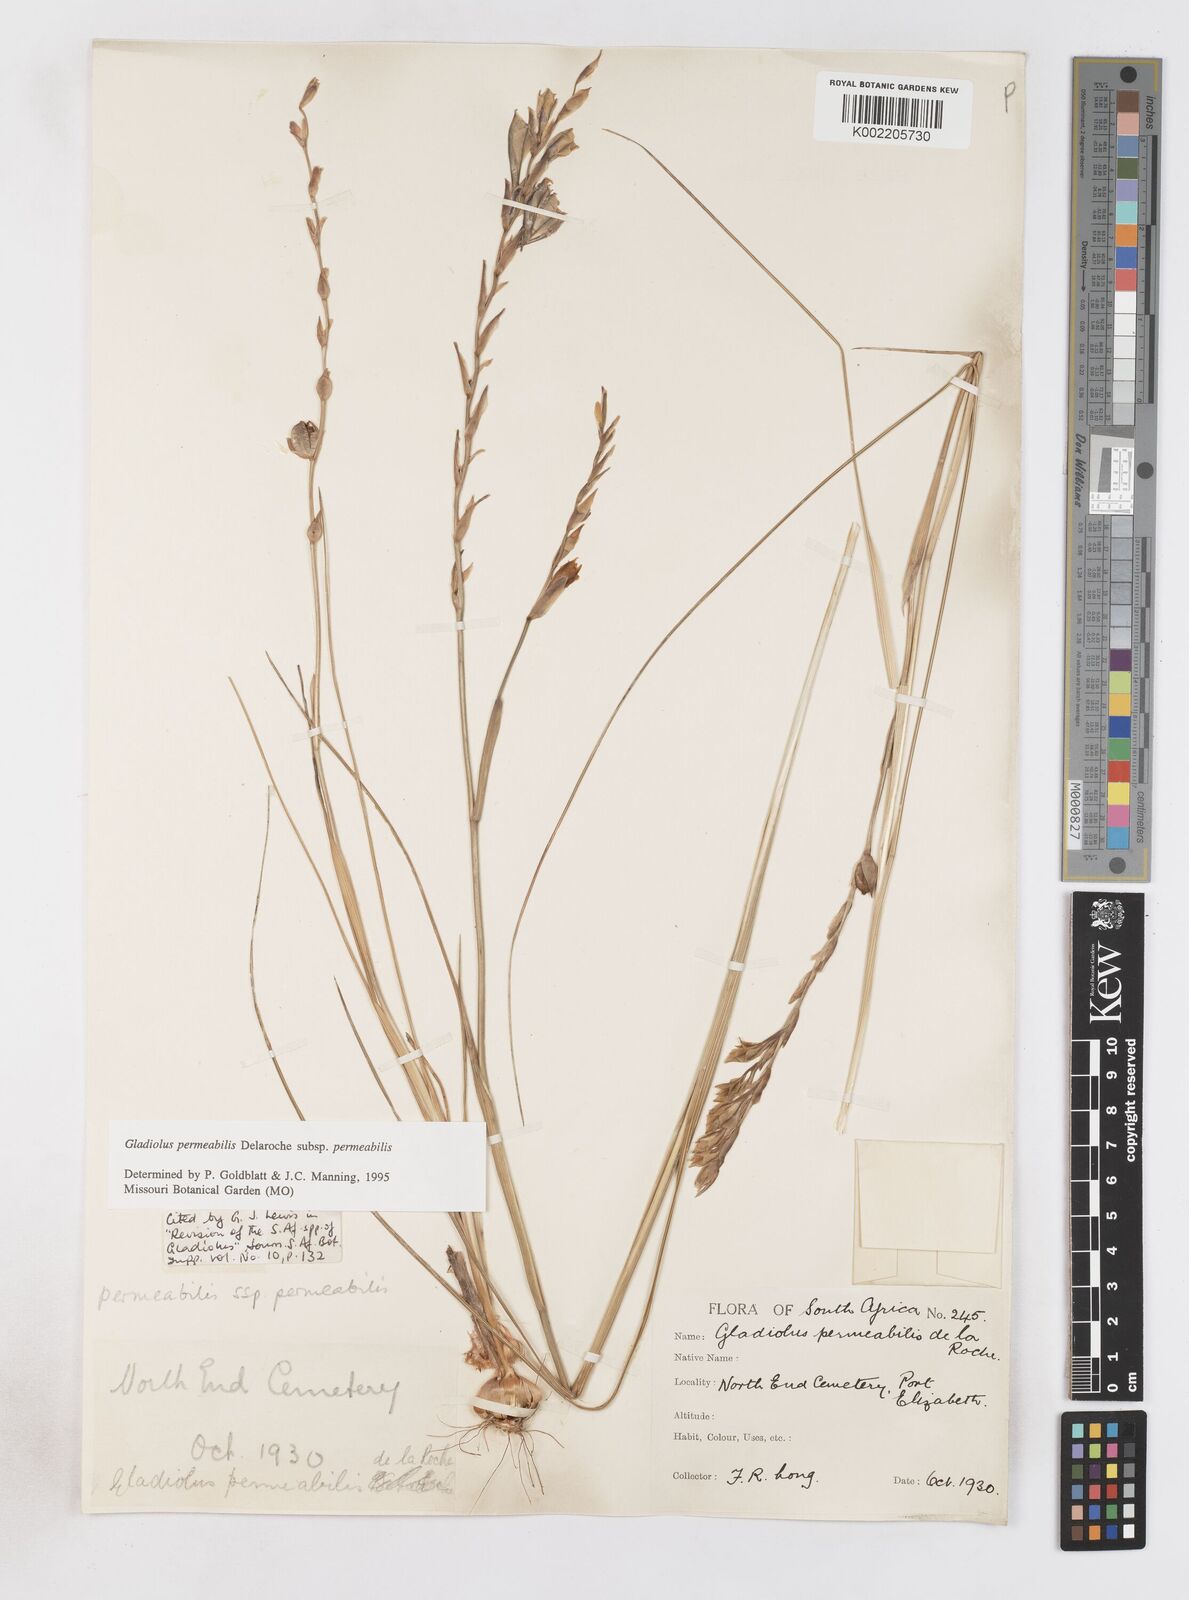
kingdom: Plantae
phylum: Tracheophyta
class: Liliopsida
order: Asparagales
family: Iridaceae
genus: Gladiolus
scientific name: Gladiolus permeabilis
